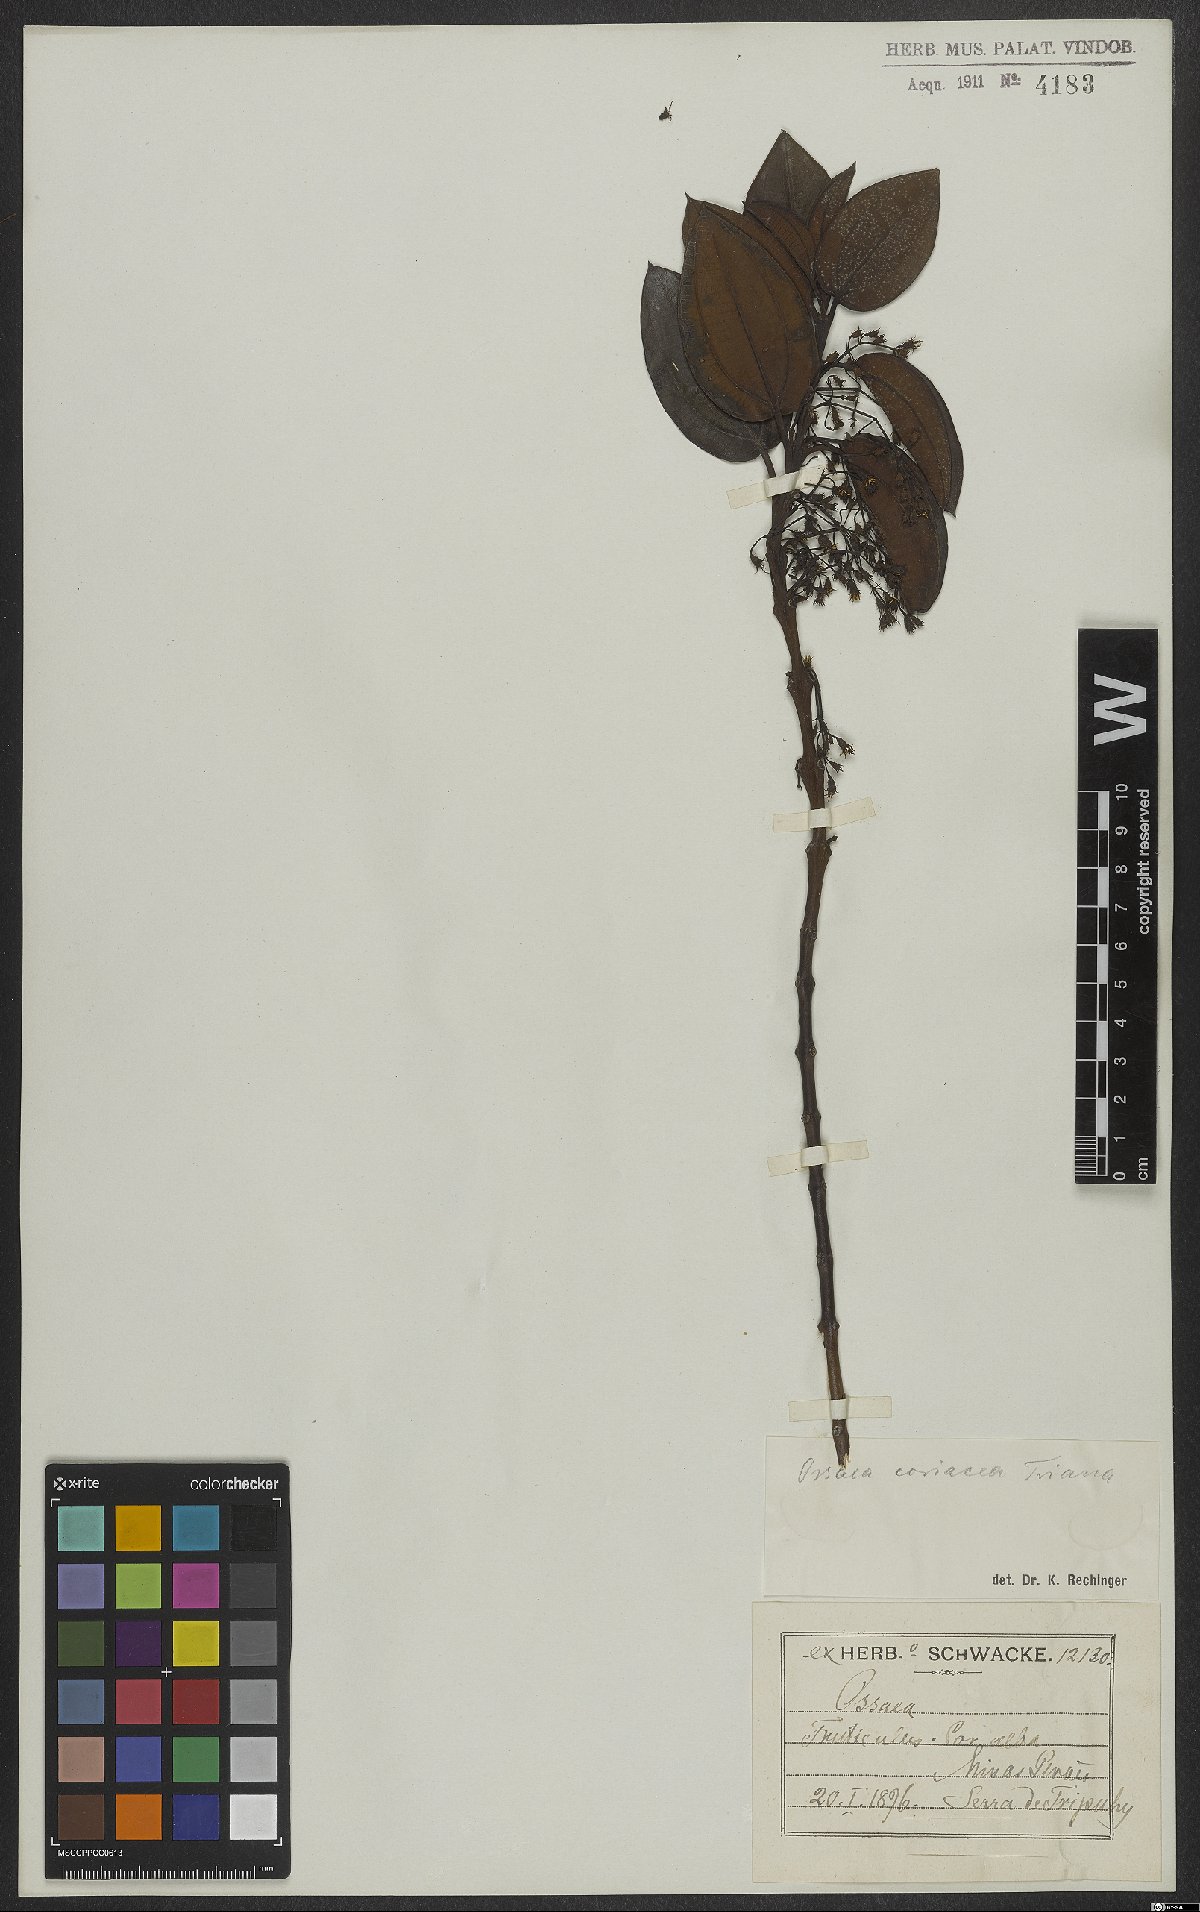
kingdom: Plantae
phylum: Tracheophyta
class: Magnoliopsida
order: Myrtales
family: Melastomataceae
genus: Miconia
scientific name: Miconia leabiscoriacea
